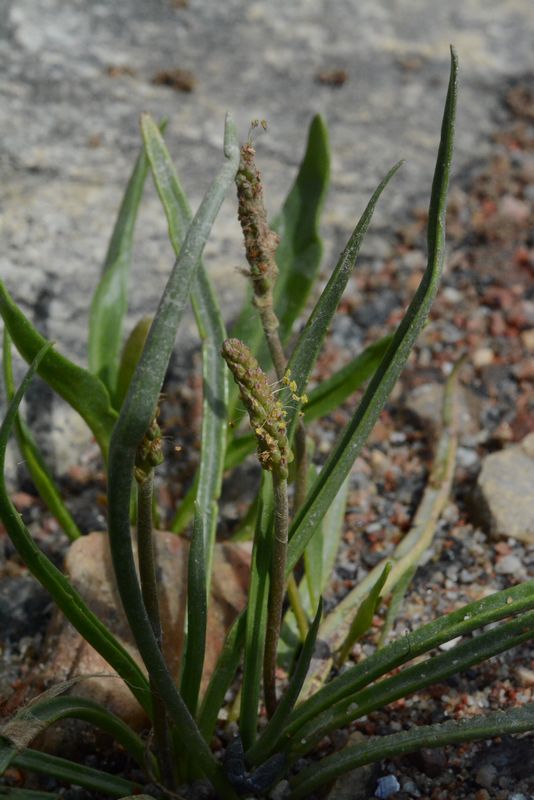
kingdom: Plantae
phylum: Tracheophyta
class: Magnoliopsida
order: Lamiales
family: Plantaginaceae
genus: Plantago
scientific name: Plantago maritima
